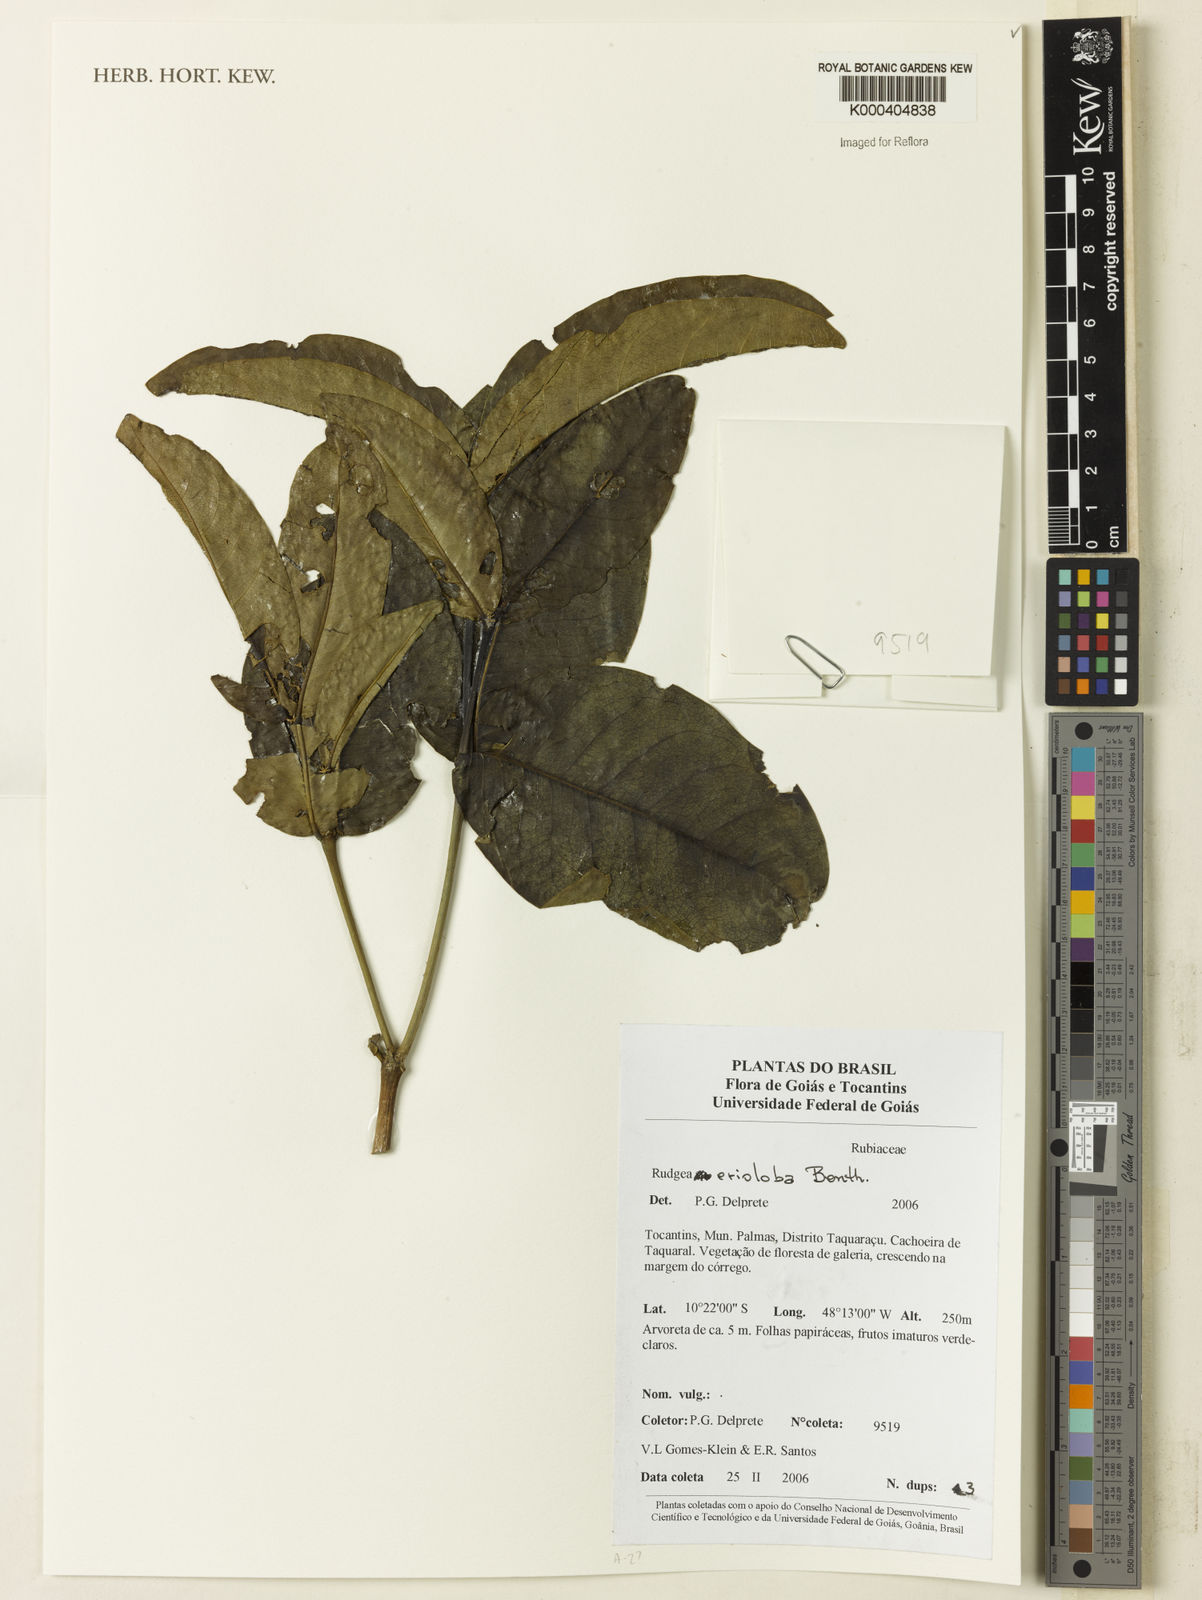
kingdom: Plantae
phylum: Tracheophyta
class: Magnoliopsida
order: Gentianales
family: Rubiaceae
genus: Rudgea
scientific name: Rudgea erioloba
